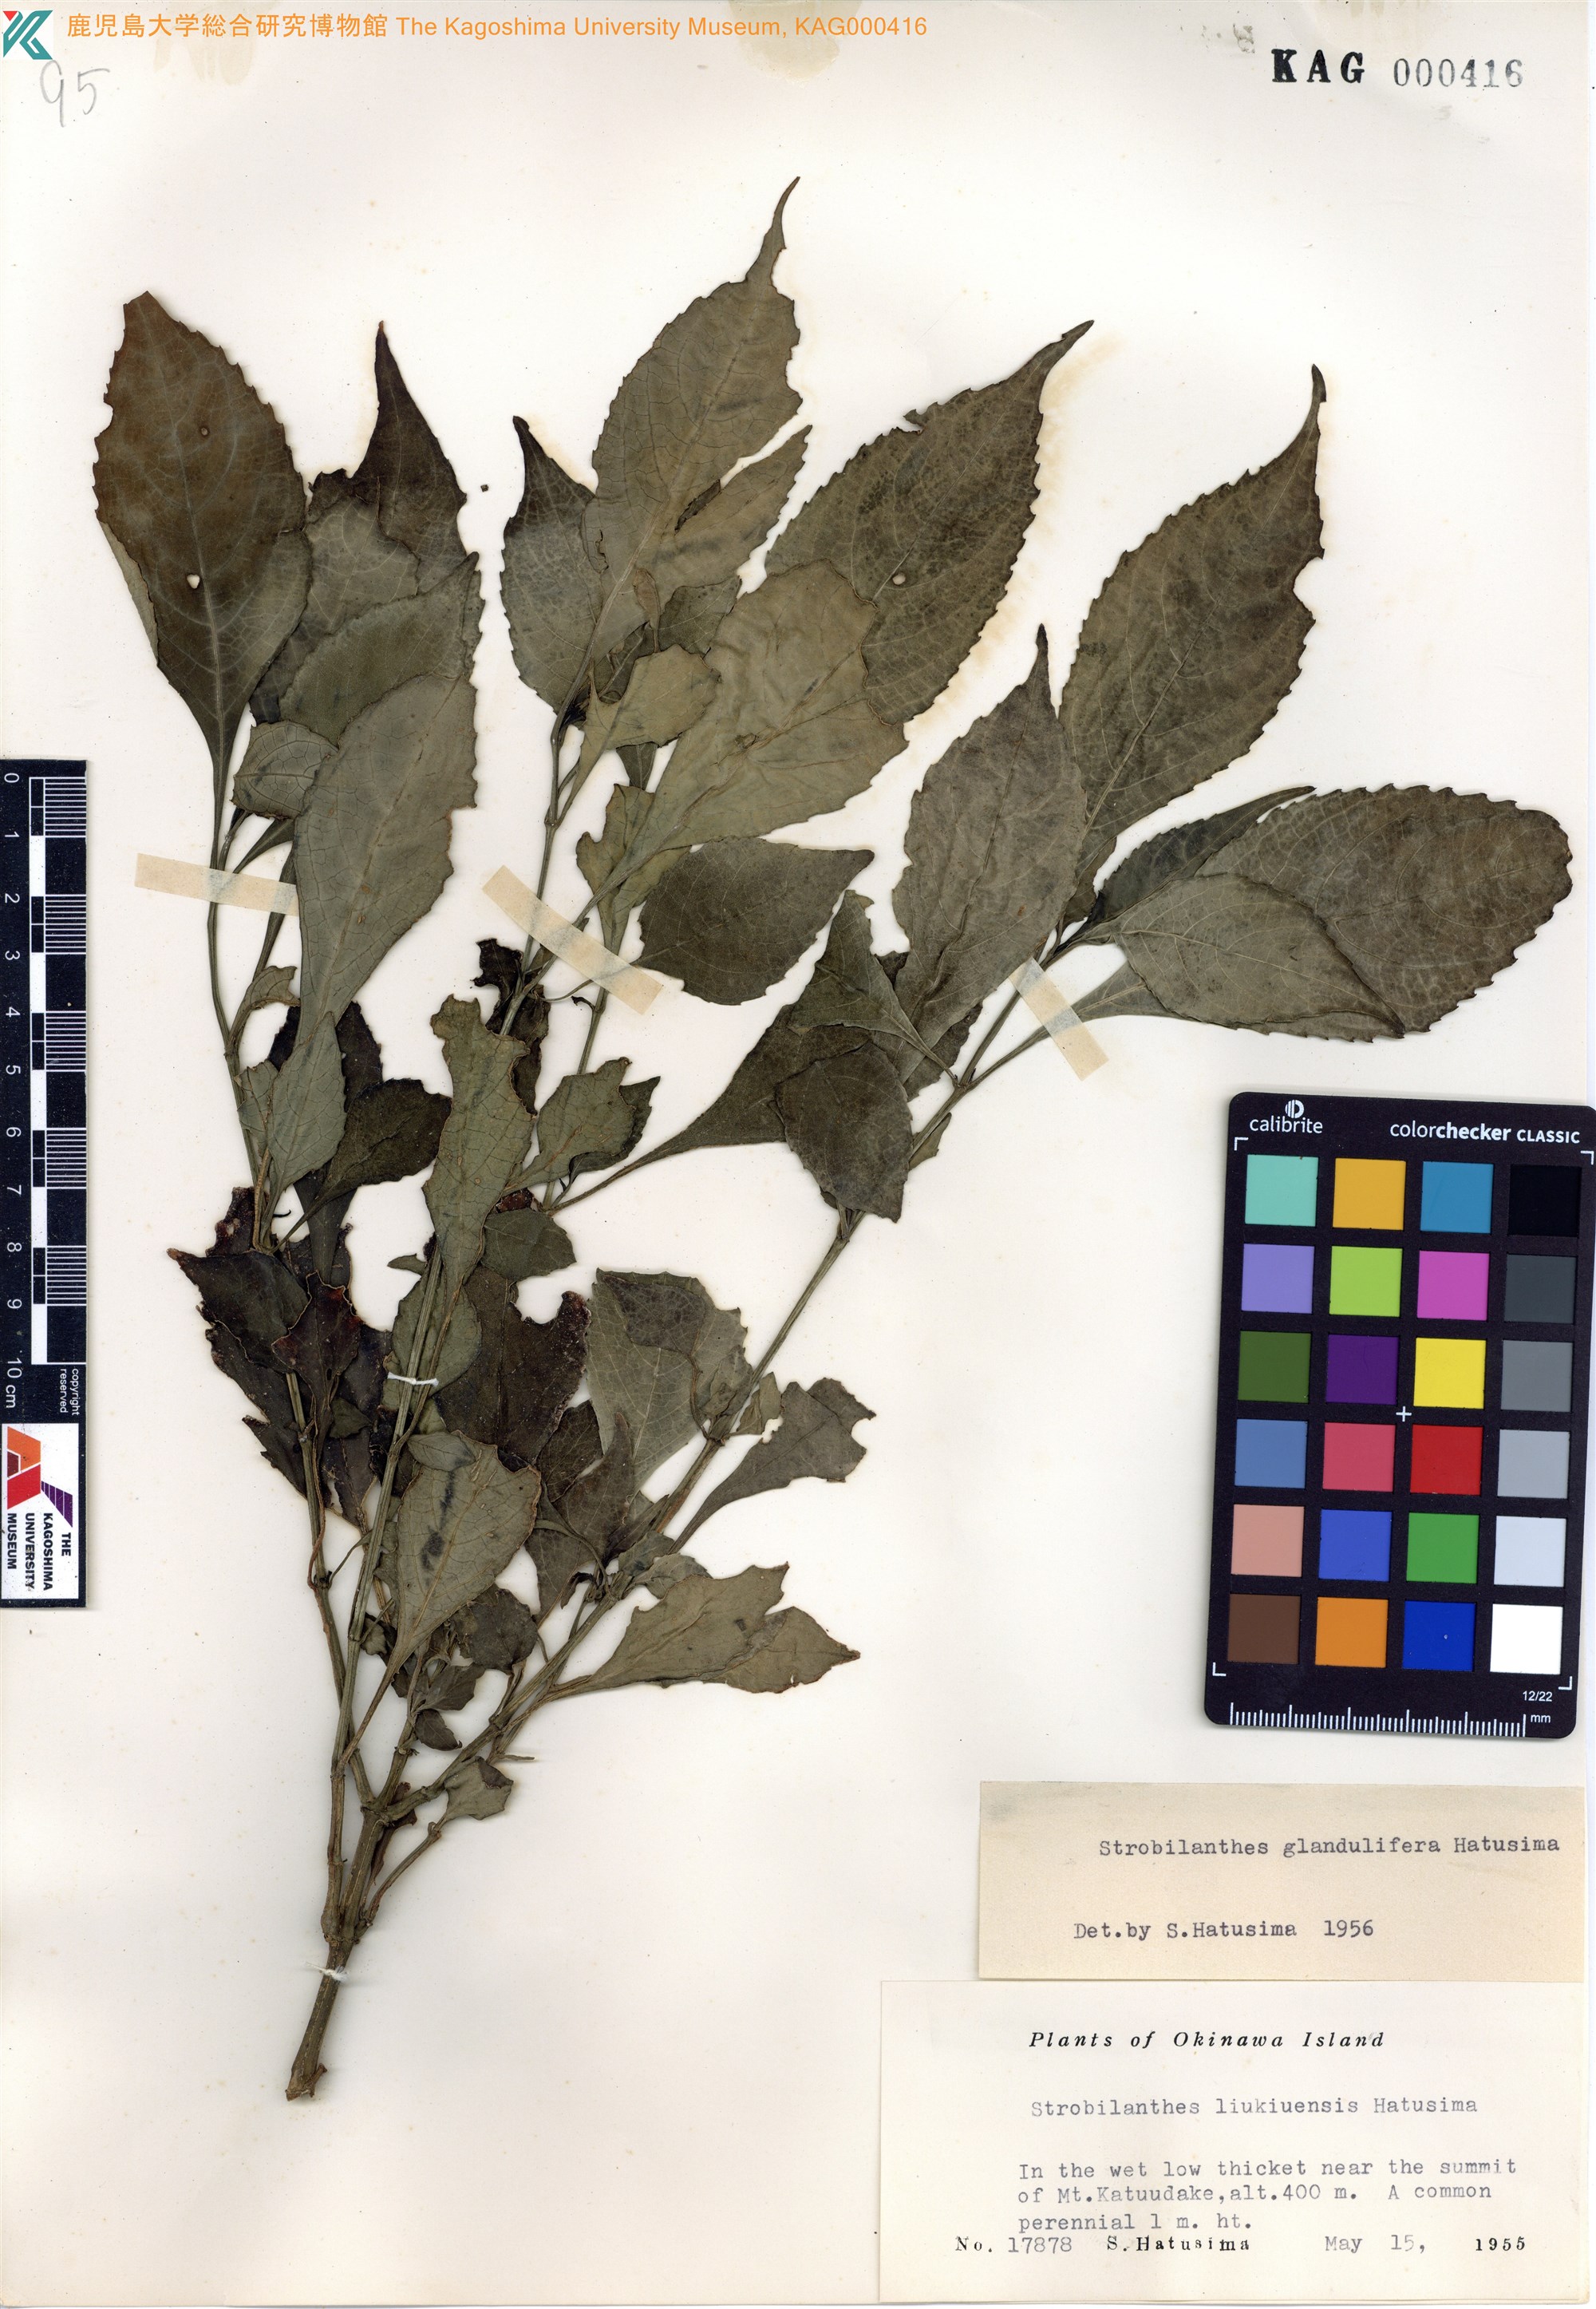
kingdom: Plantae
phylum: Tracheophyta
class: Magnoliopsida
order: Lamiales
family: Acanthaceae
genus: Strobilanthes
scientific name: Strobilanthes flexicaulis
